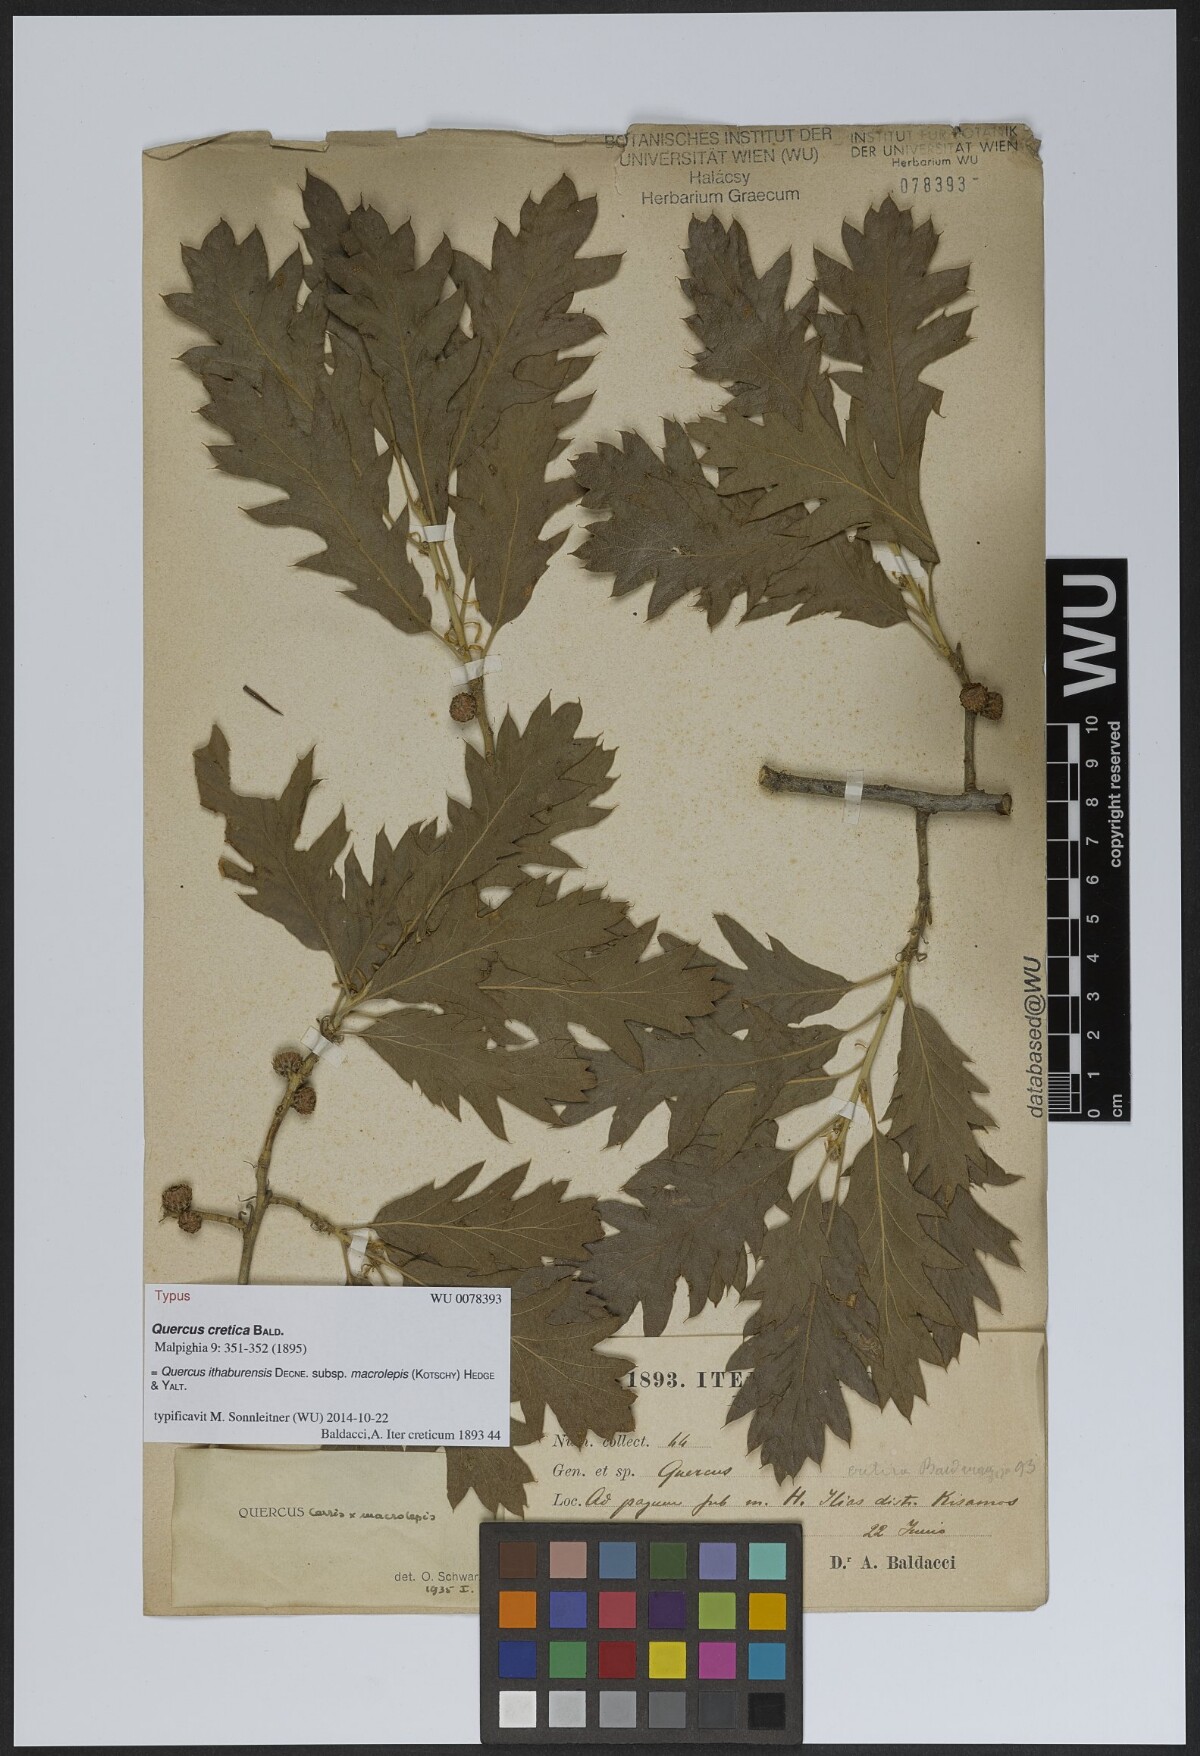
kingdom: Plantae
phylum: Tracheophyta
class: Magnoliopsida
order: Fagales
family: Fagaceae
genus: Quercus
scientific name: Quercus ithaburensis
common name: Tabor oak
